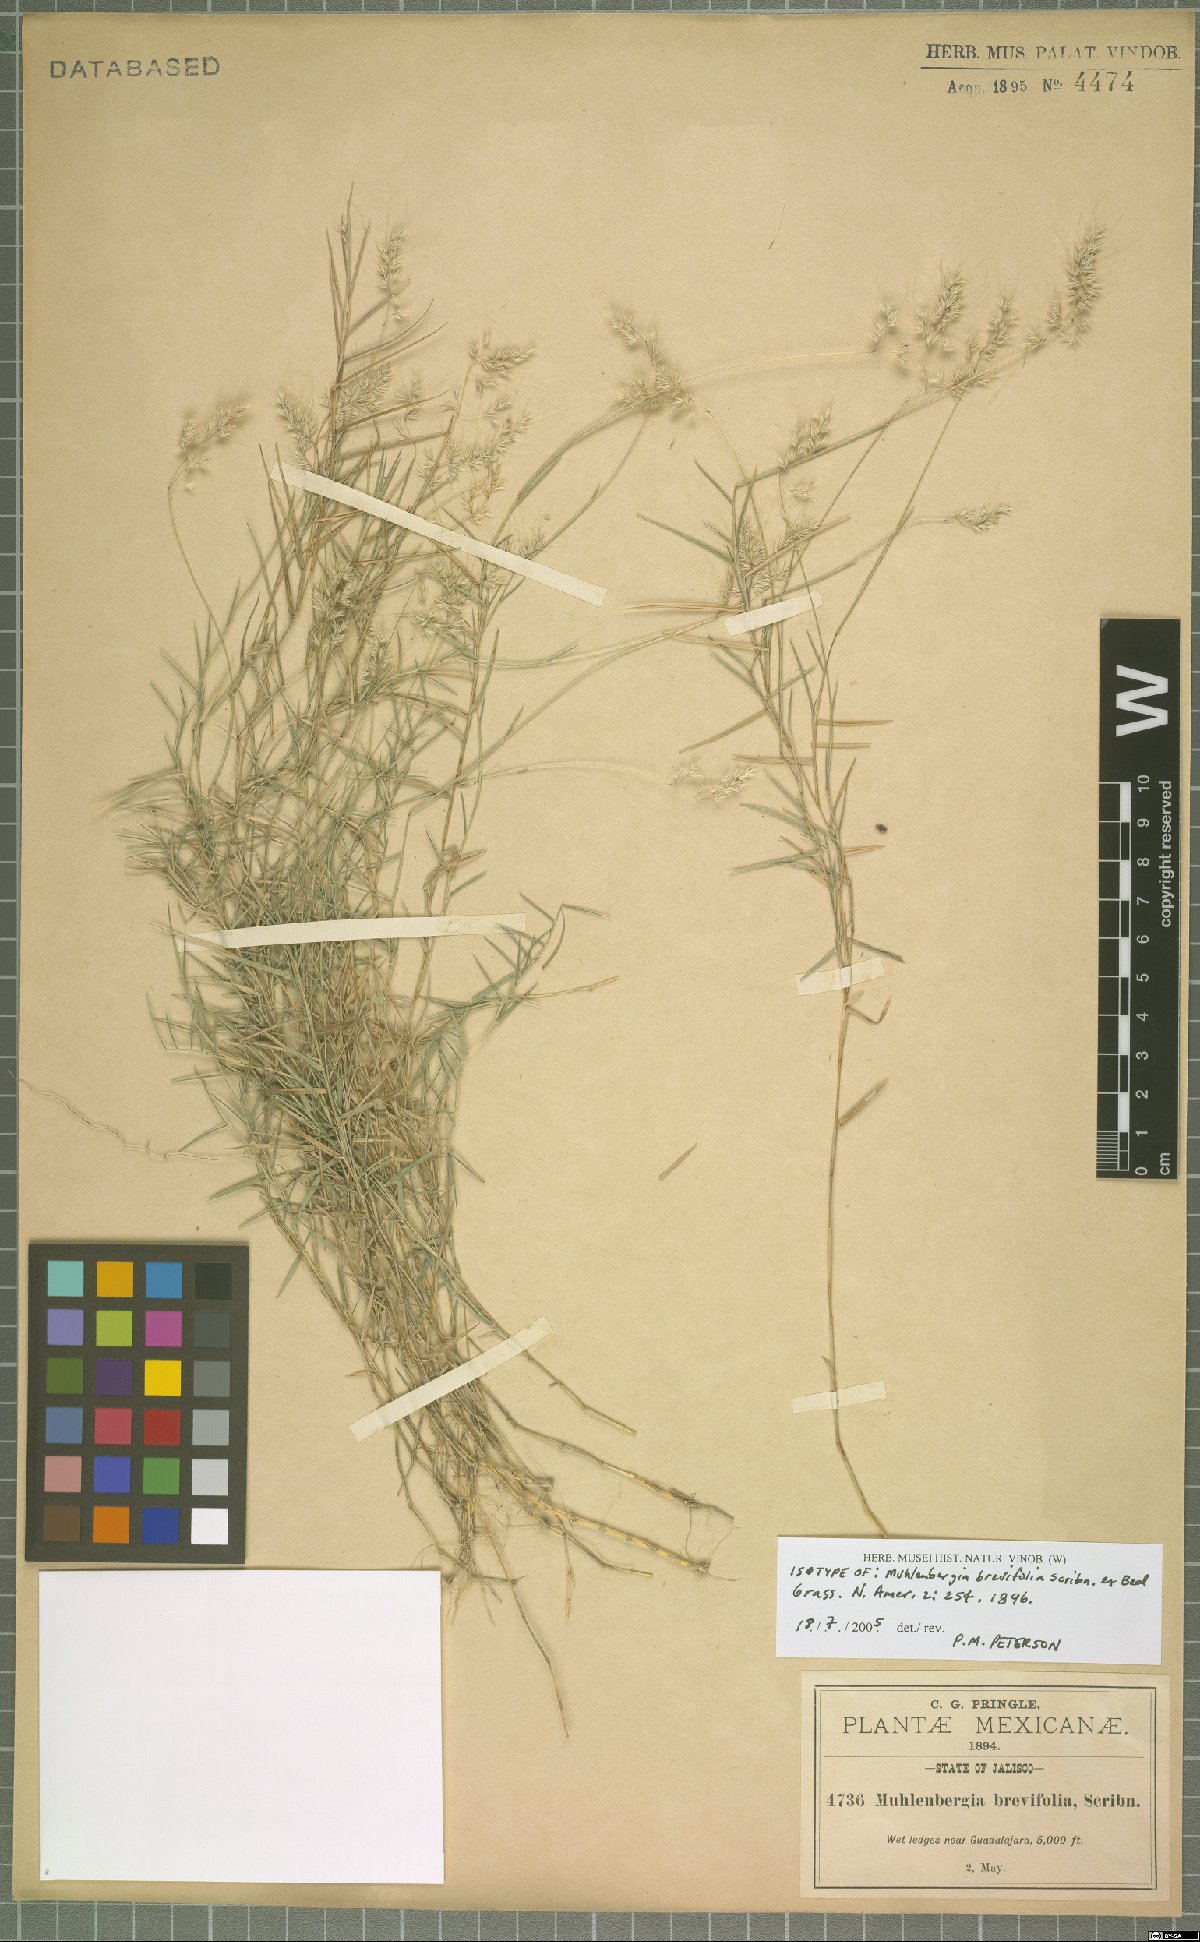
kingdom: Plantae
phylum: Tracheophyta
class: Liliopsida
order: Poales
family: Poaceae
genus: Muhlenbergia
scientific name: Muhlenbergia brevifolia
